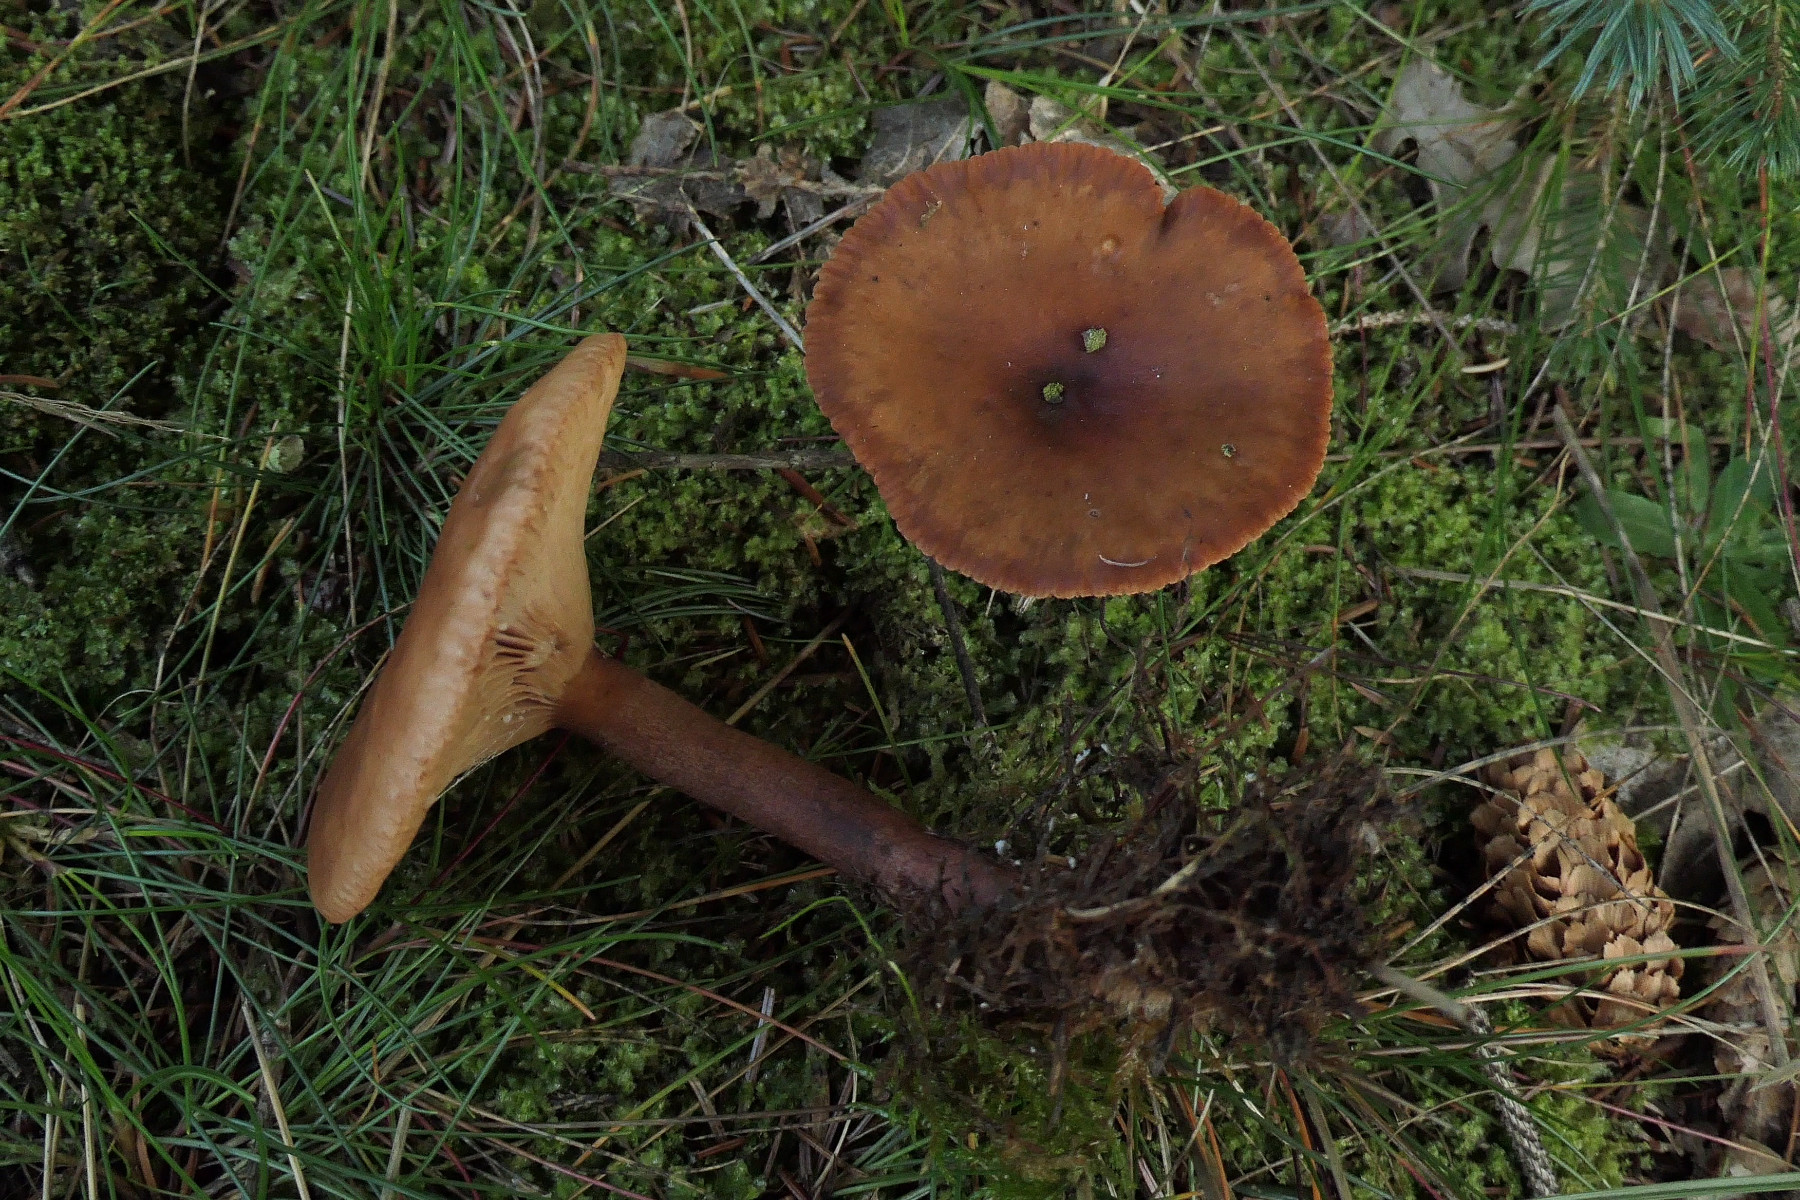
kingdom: Fungi
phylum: Basidiomycota
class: Agaricomycetes
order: Russulales
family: Russulaceae
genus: Lactarius
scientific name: Lactarius camphoratus
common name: kamfer-mælkehat
